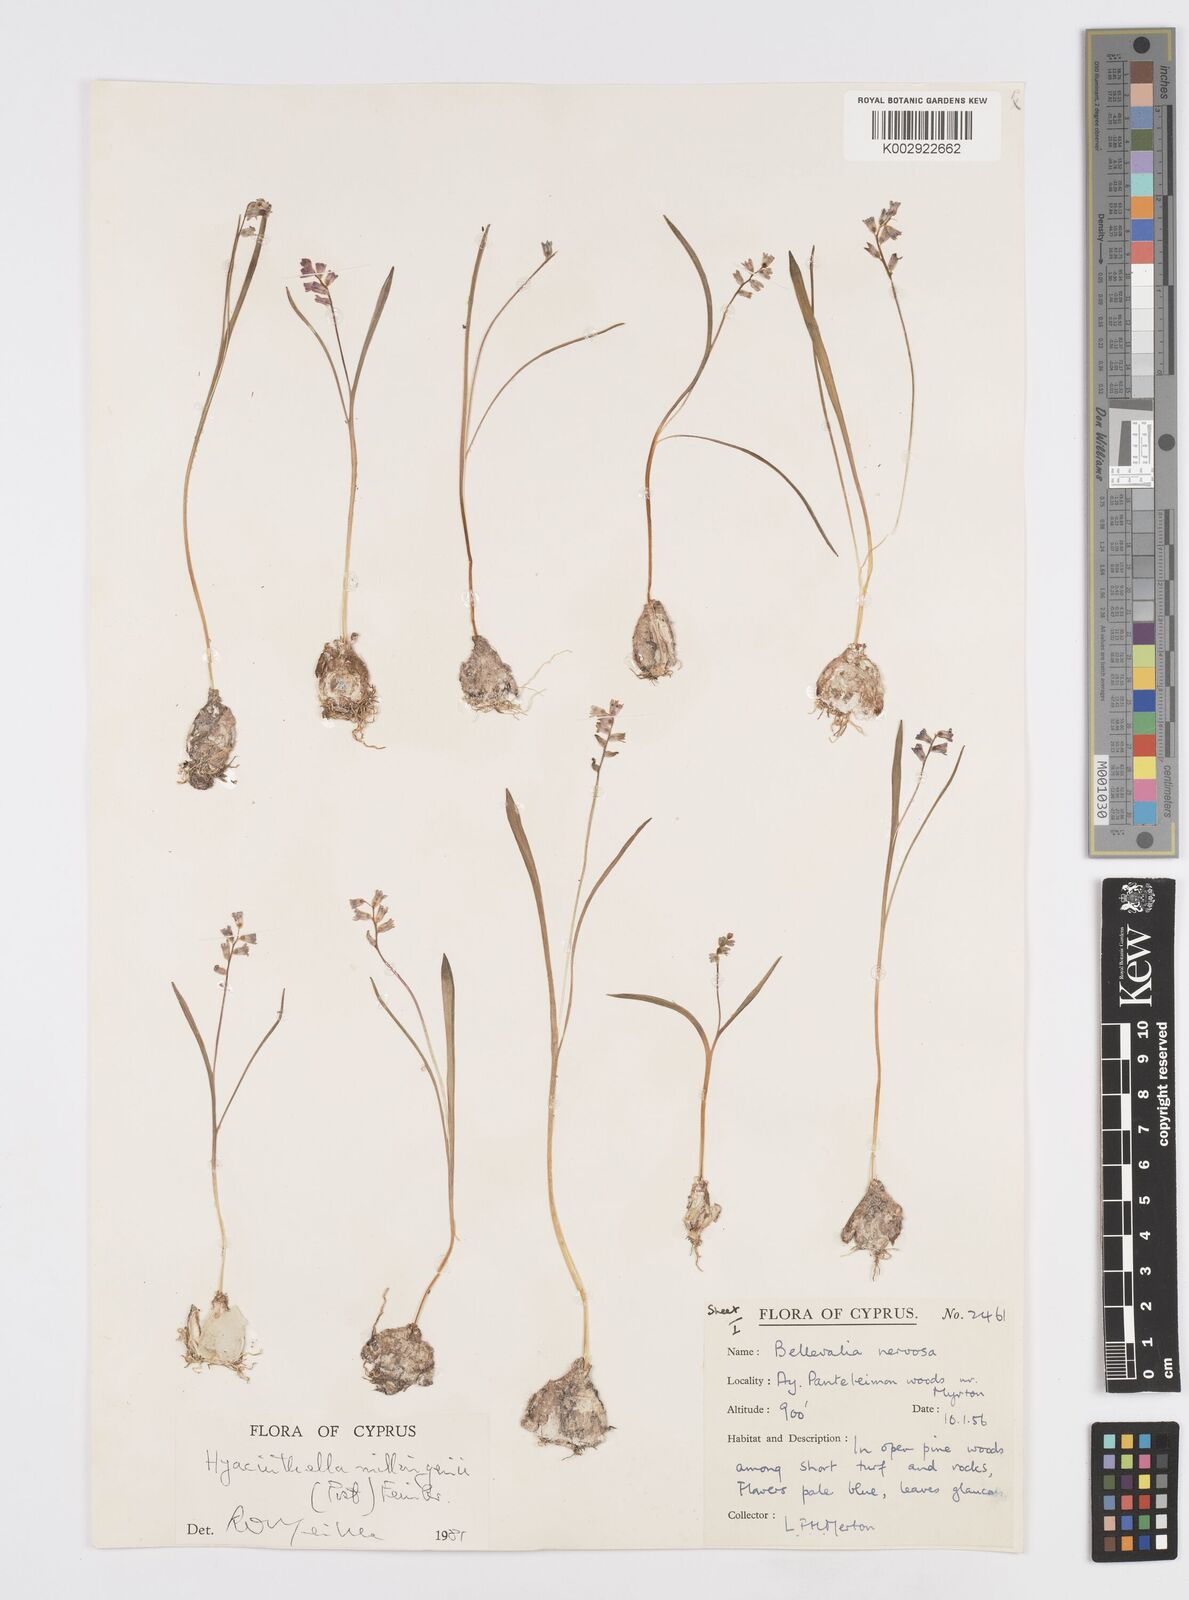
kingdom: Plantae
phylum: Tracheophyta
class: Liliopsida
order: Asparagales
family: Asparagaceae
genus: Hyacinthella
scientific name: Hyacinthella millingenii
